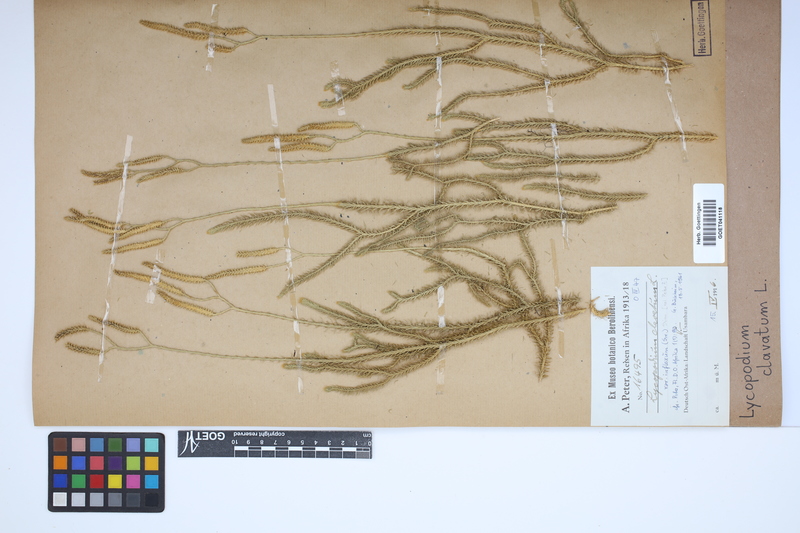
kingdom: Plantae
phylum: Tracheophyta
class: Lycopodiopsida
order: Lycopodiales
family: Lycopodiaceae
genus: Lycopodium
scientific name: Lycopodium clavatum
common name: Stag's-horn clubmoss
